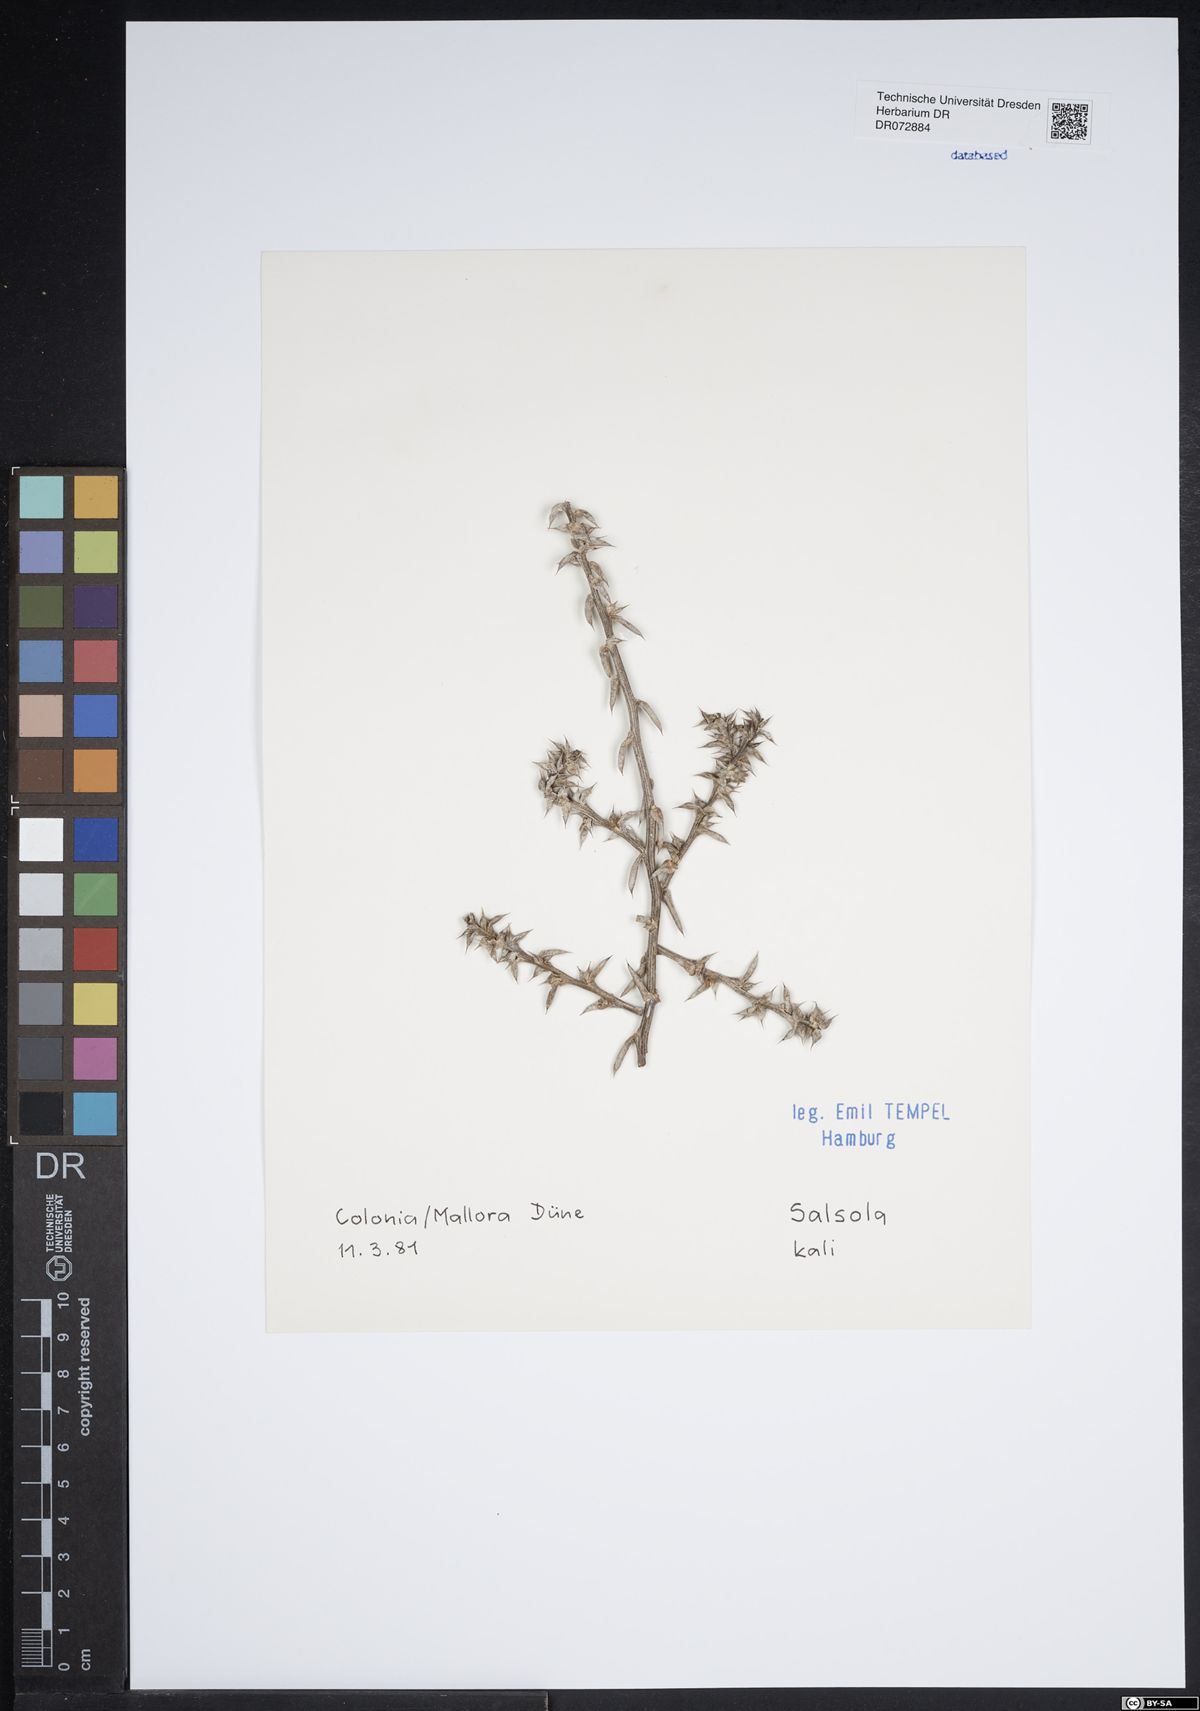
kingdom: Plantae
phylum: Tracheophyta
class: Magnoliopsida
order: Caryophyllales
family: Amaranthaceae
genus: Salsola
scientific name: Salsola kali
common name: Saltwort
